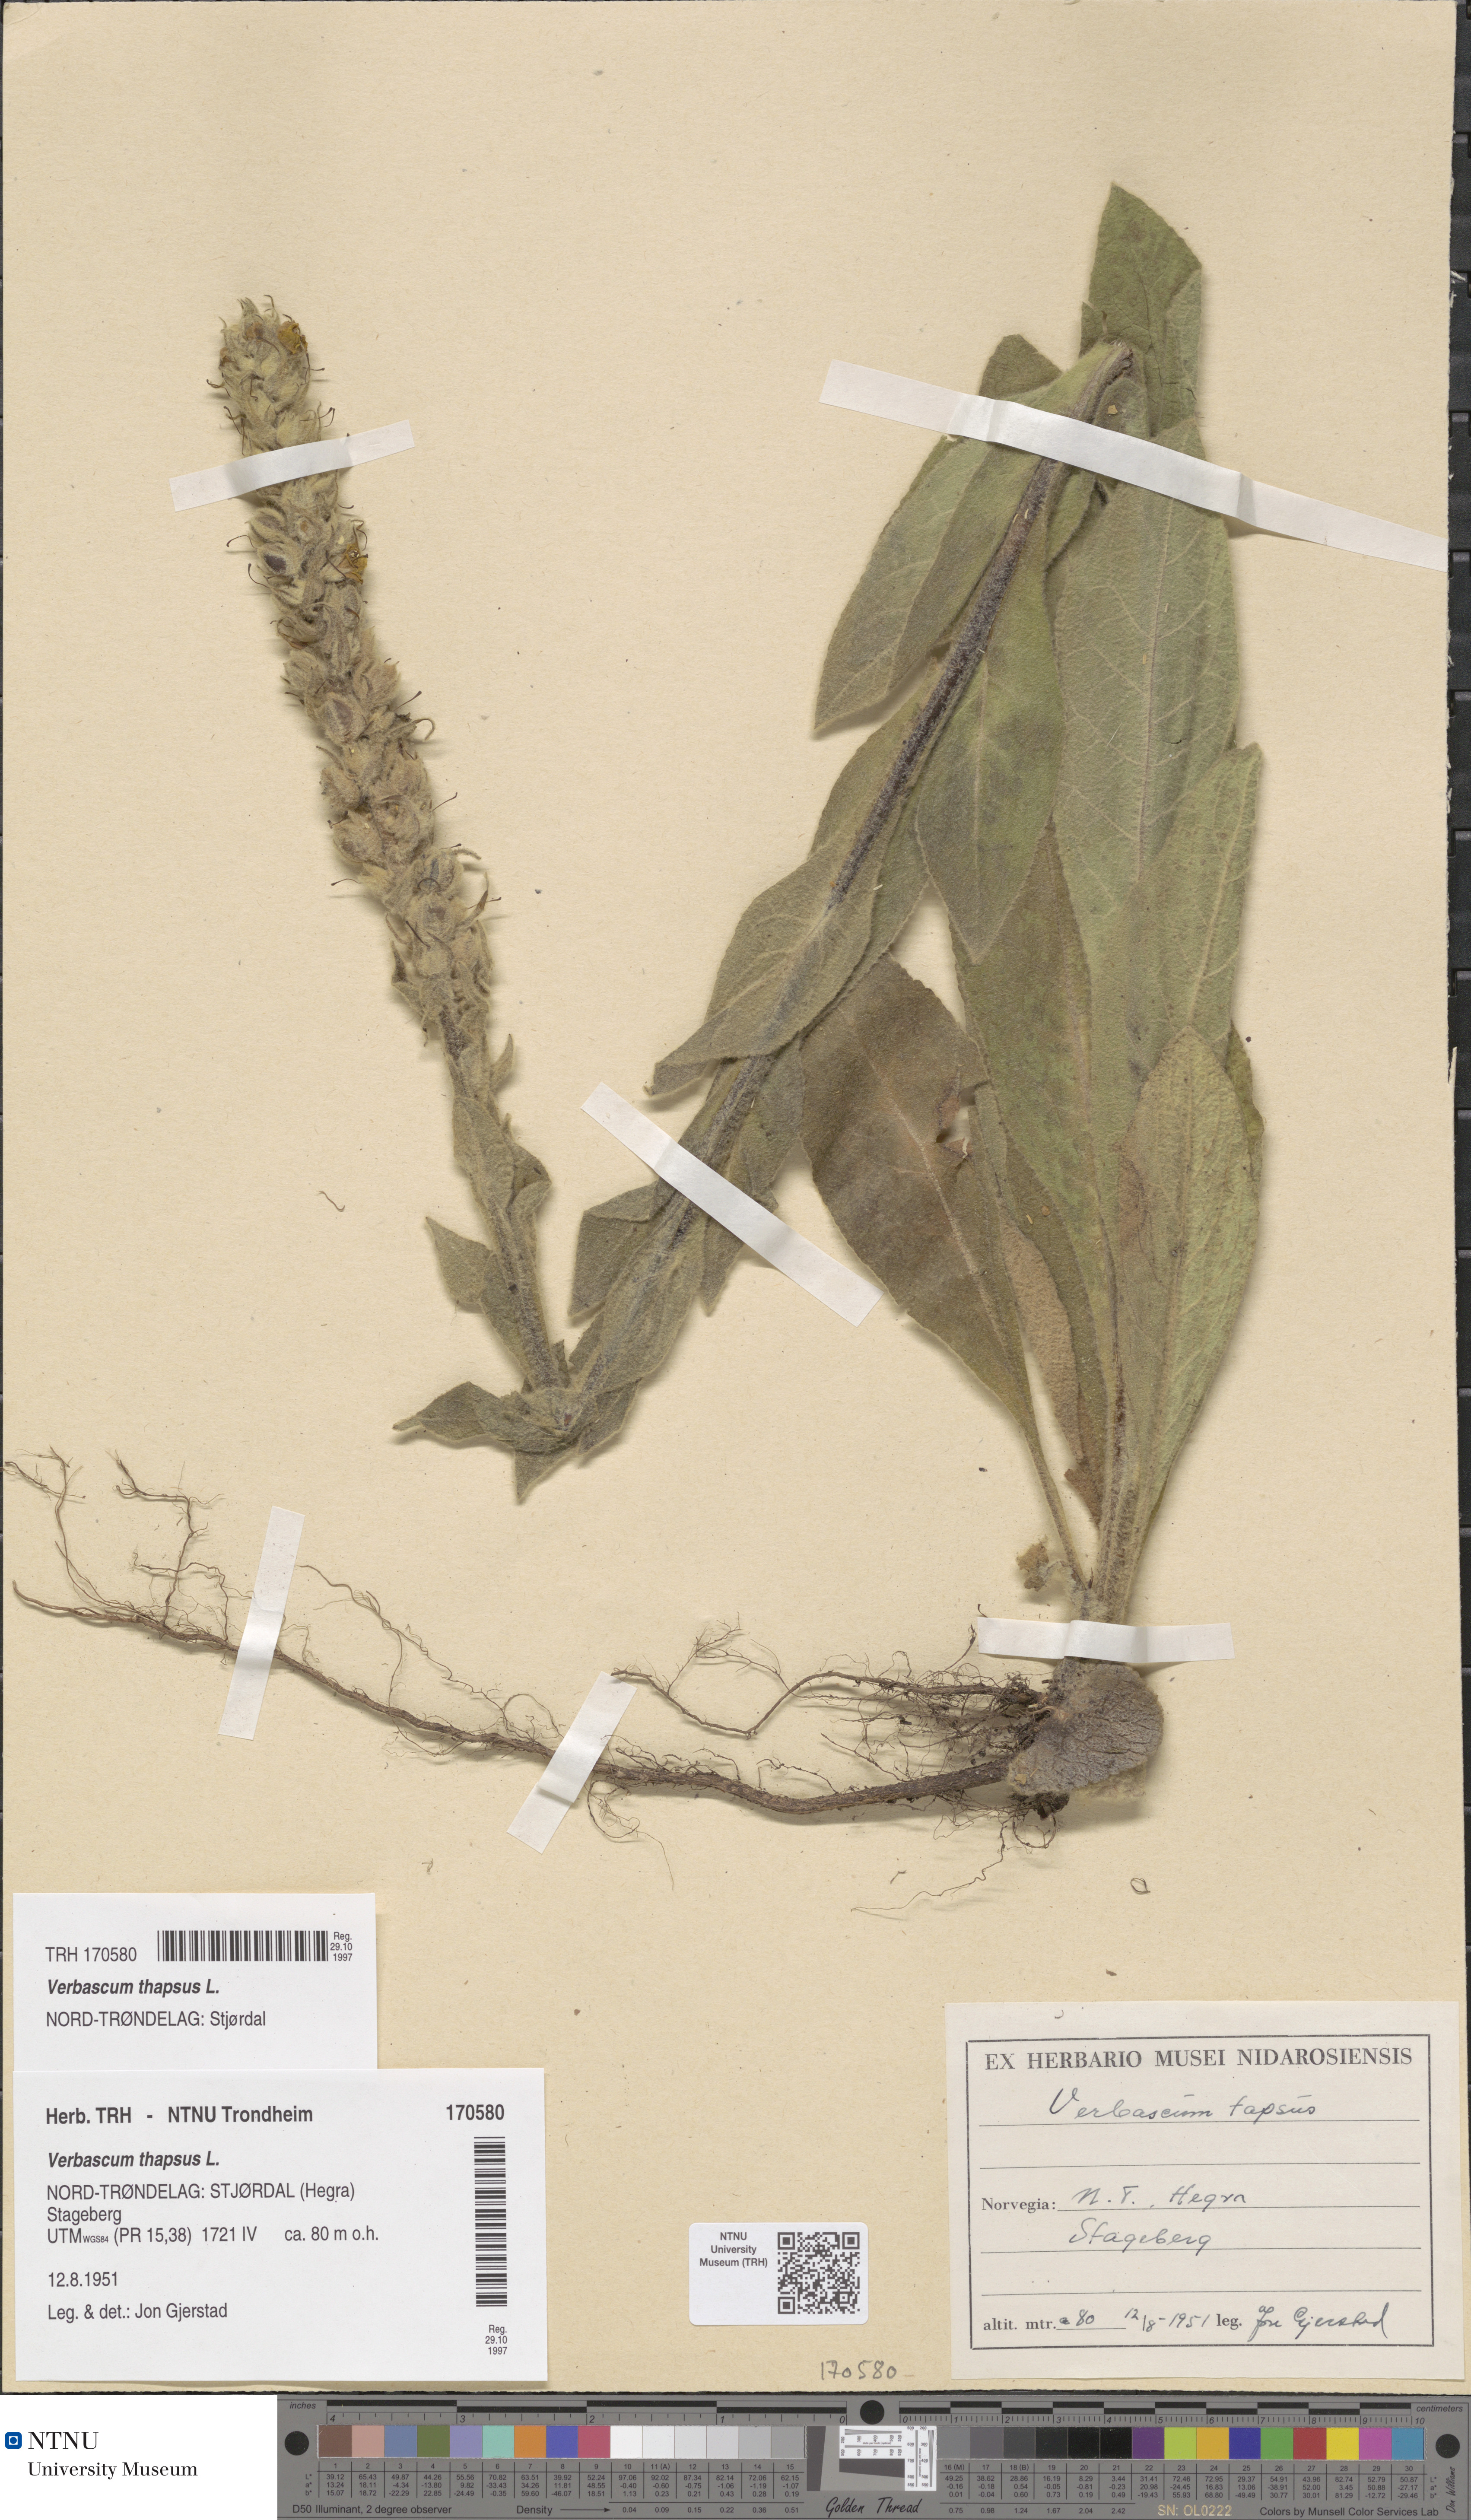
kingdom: Plantae
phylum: Tracheophyta
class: Magnoliopsida
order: Lamiales
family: Scrophulariaceae
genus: Verbascum
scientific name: Verbascum thapsus
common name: Common mullein
